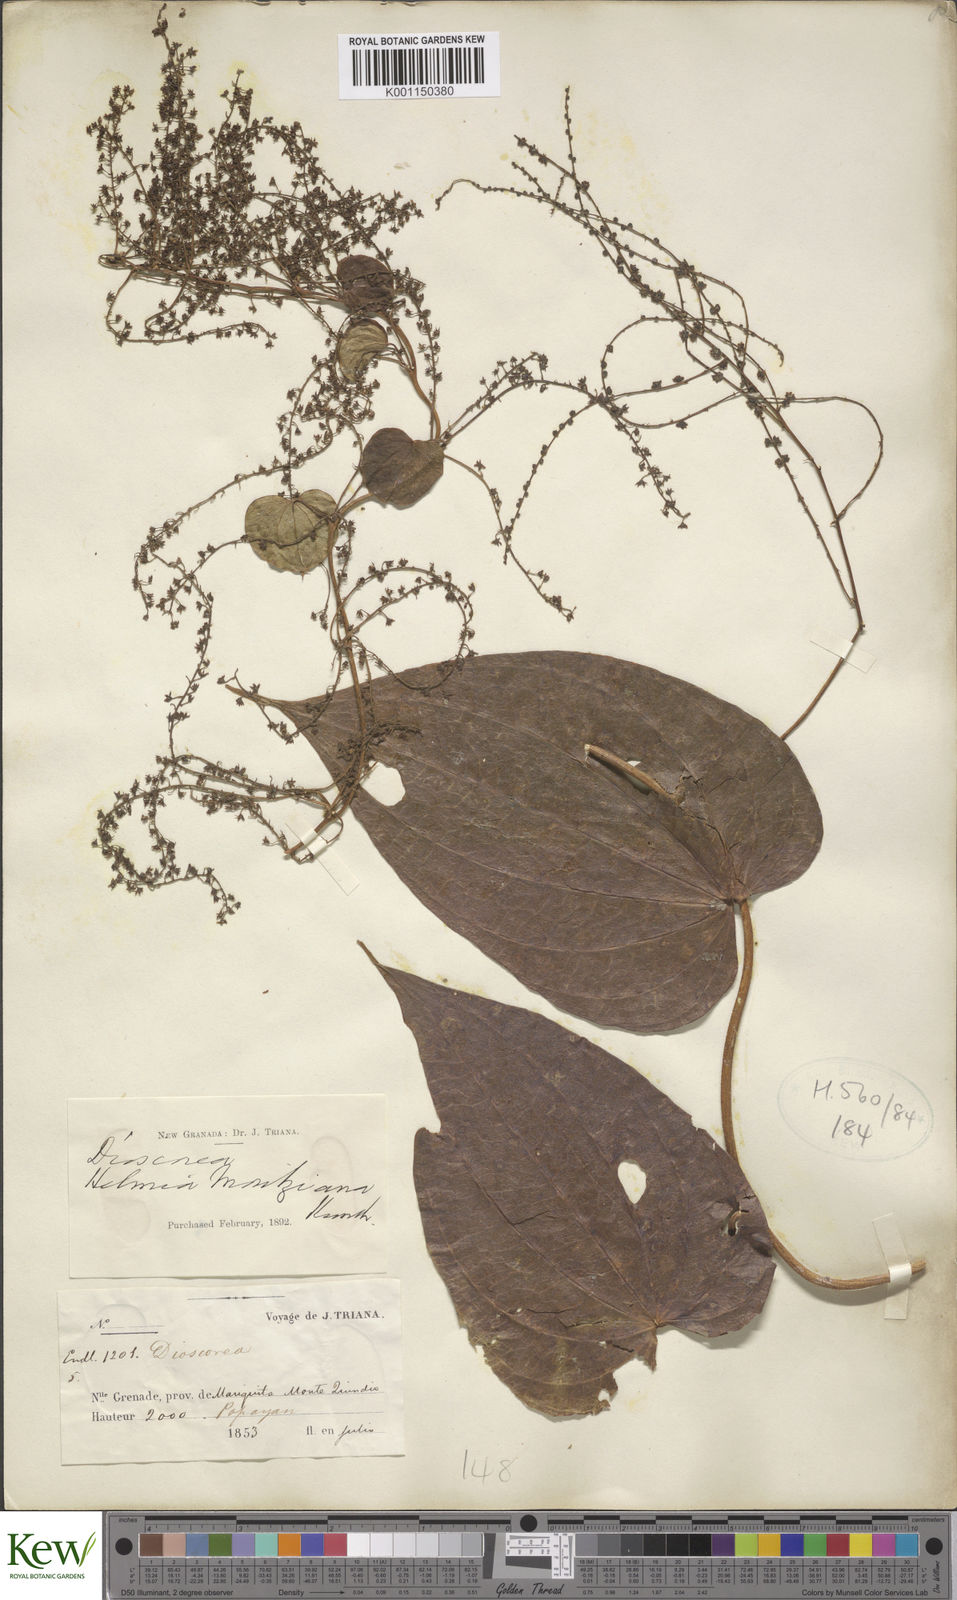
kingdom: Plantae
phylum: Tracheophyta
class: Liliopsida
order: Dioscoreales
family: Dioscoreaceae
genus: Dioscorea
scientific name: Dioscorea kuntzei
